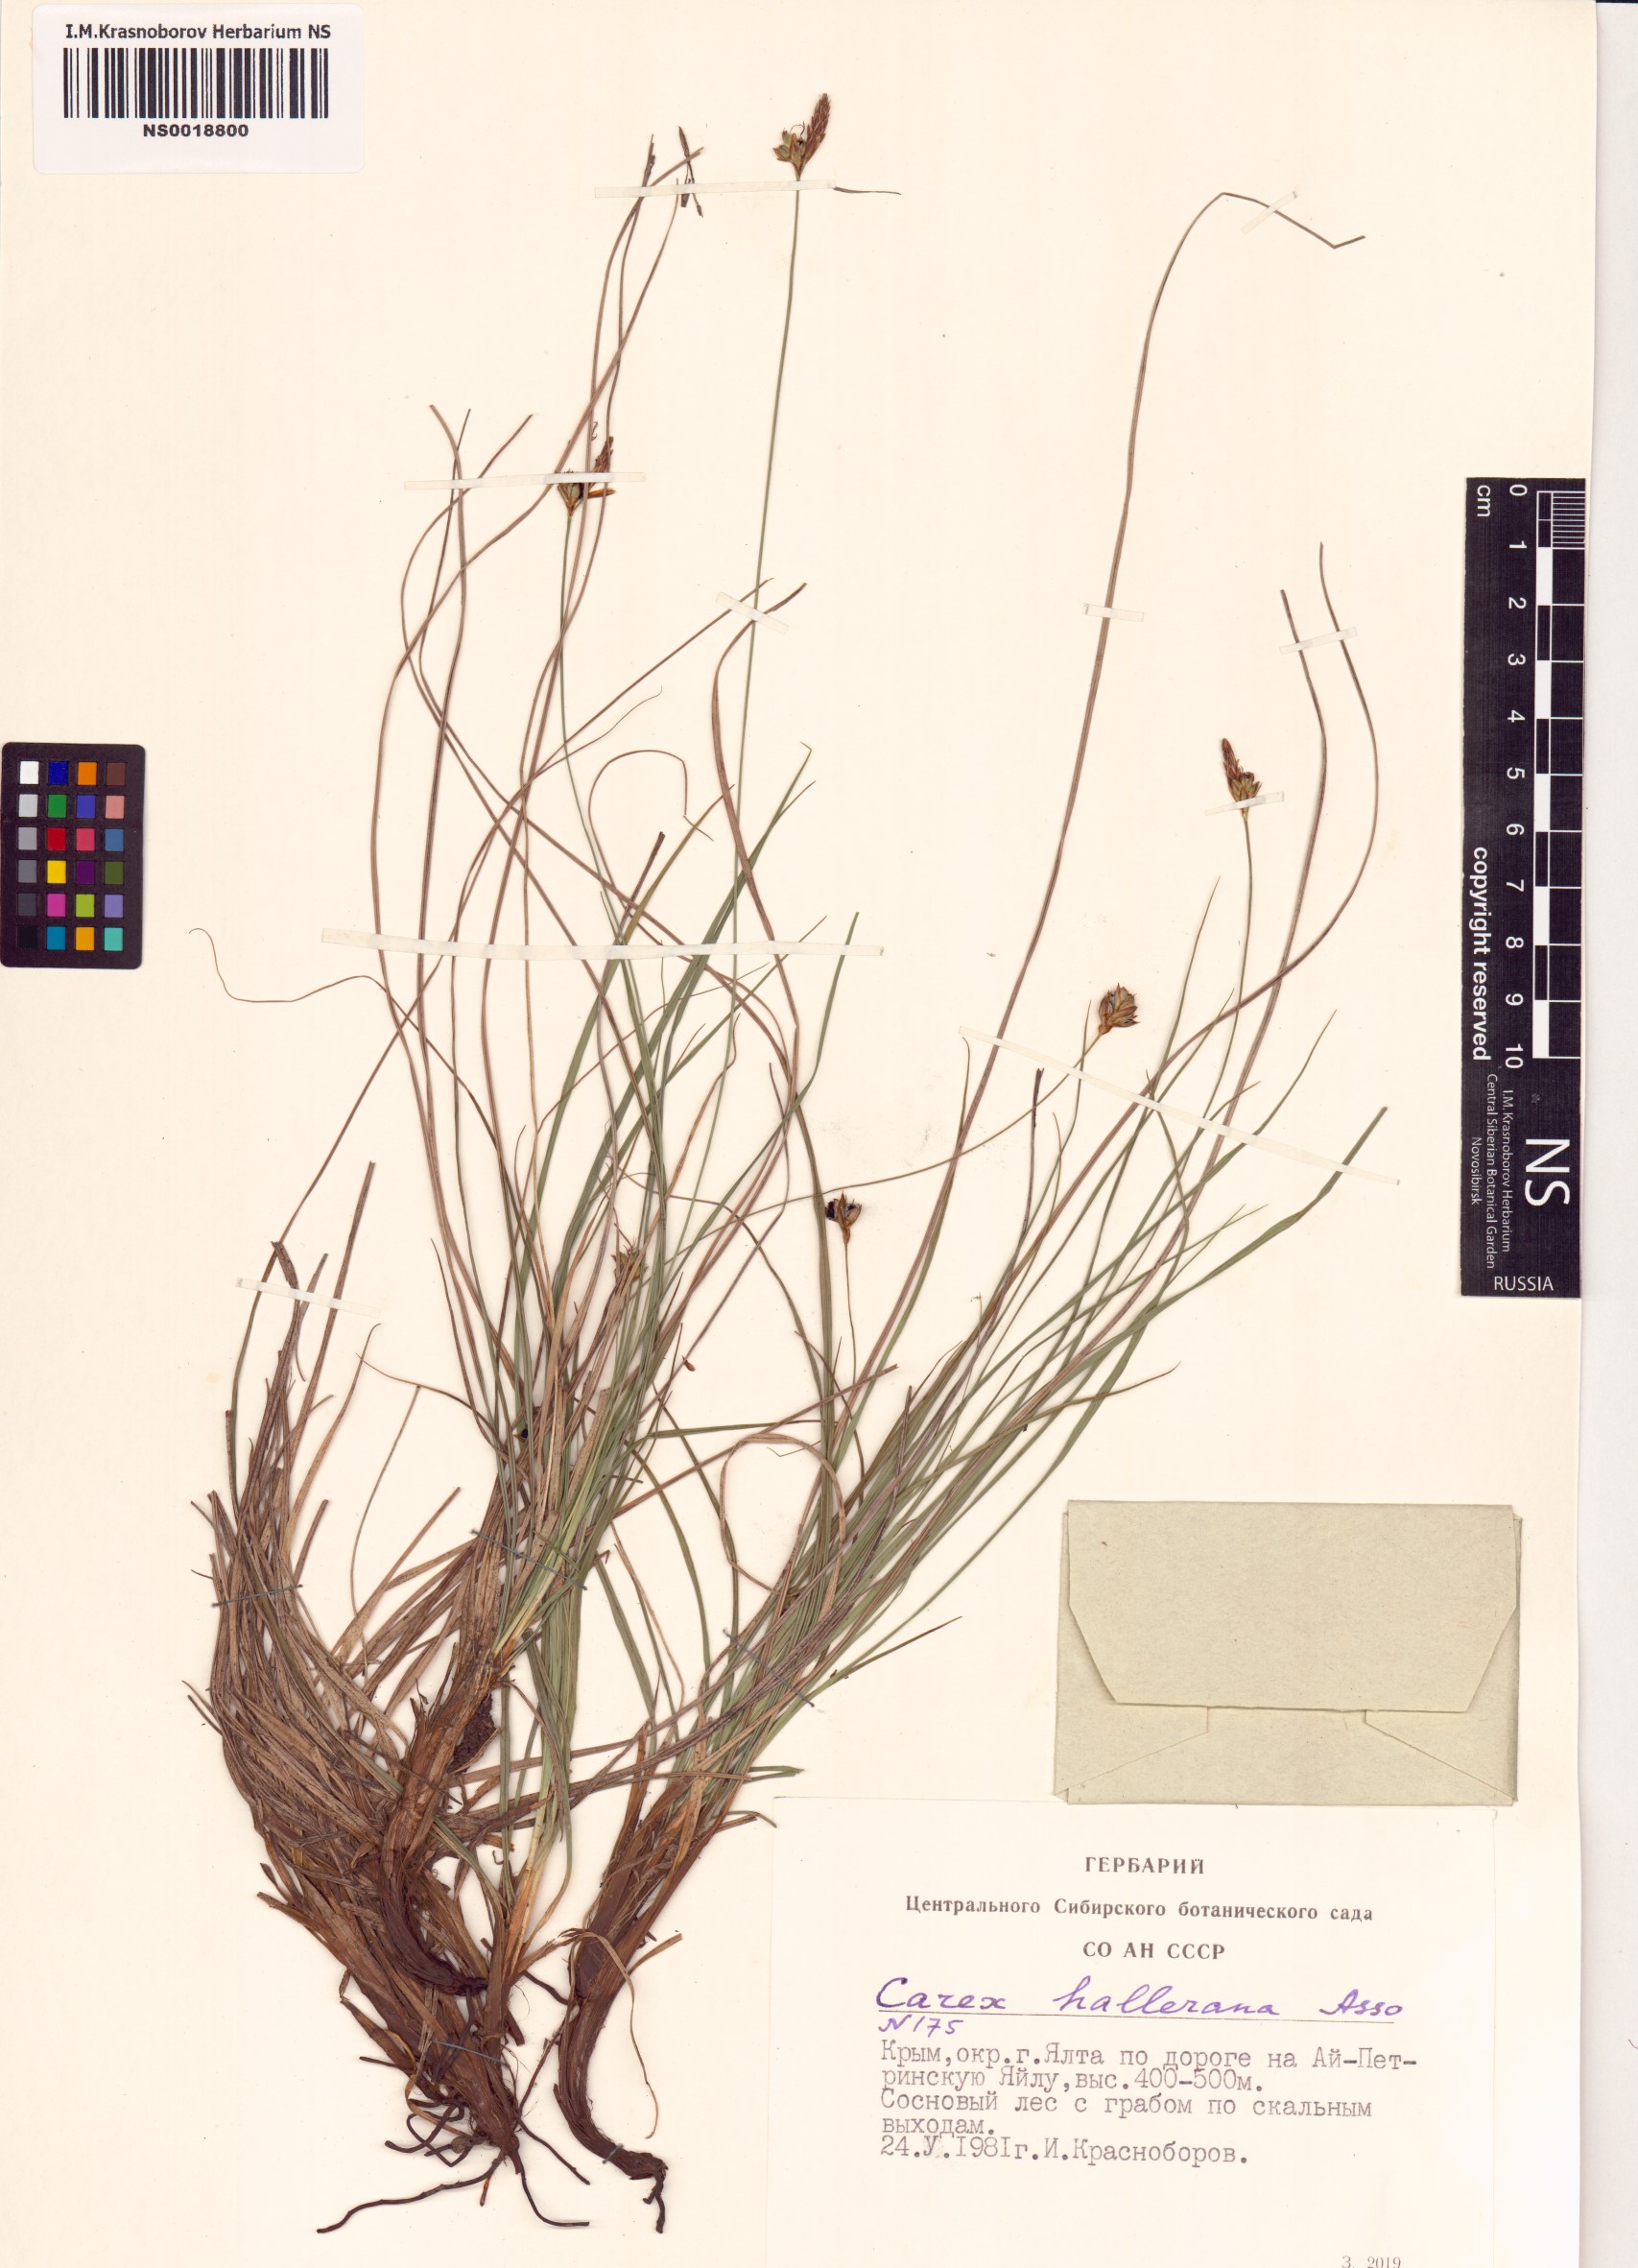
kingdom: Plantae
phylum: Tracheophyta
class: Liliopsida
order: Poales
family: Cyperaceae
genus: Carex
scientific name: Carex halleriana
